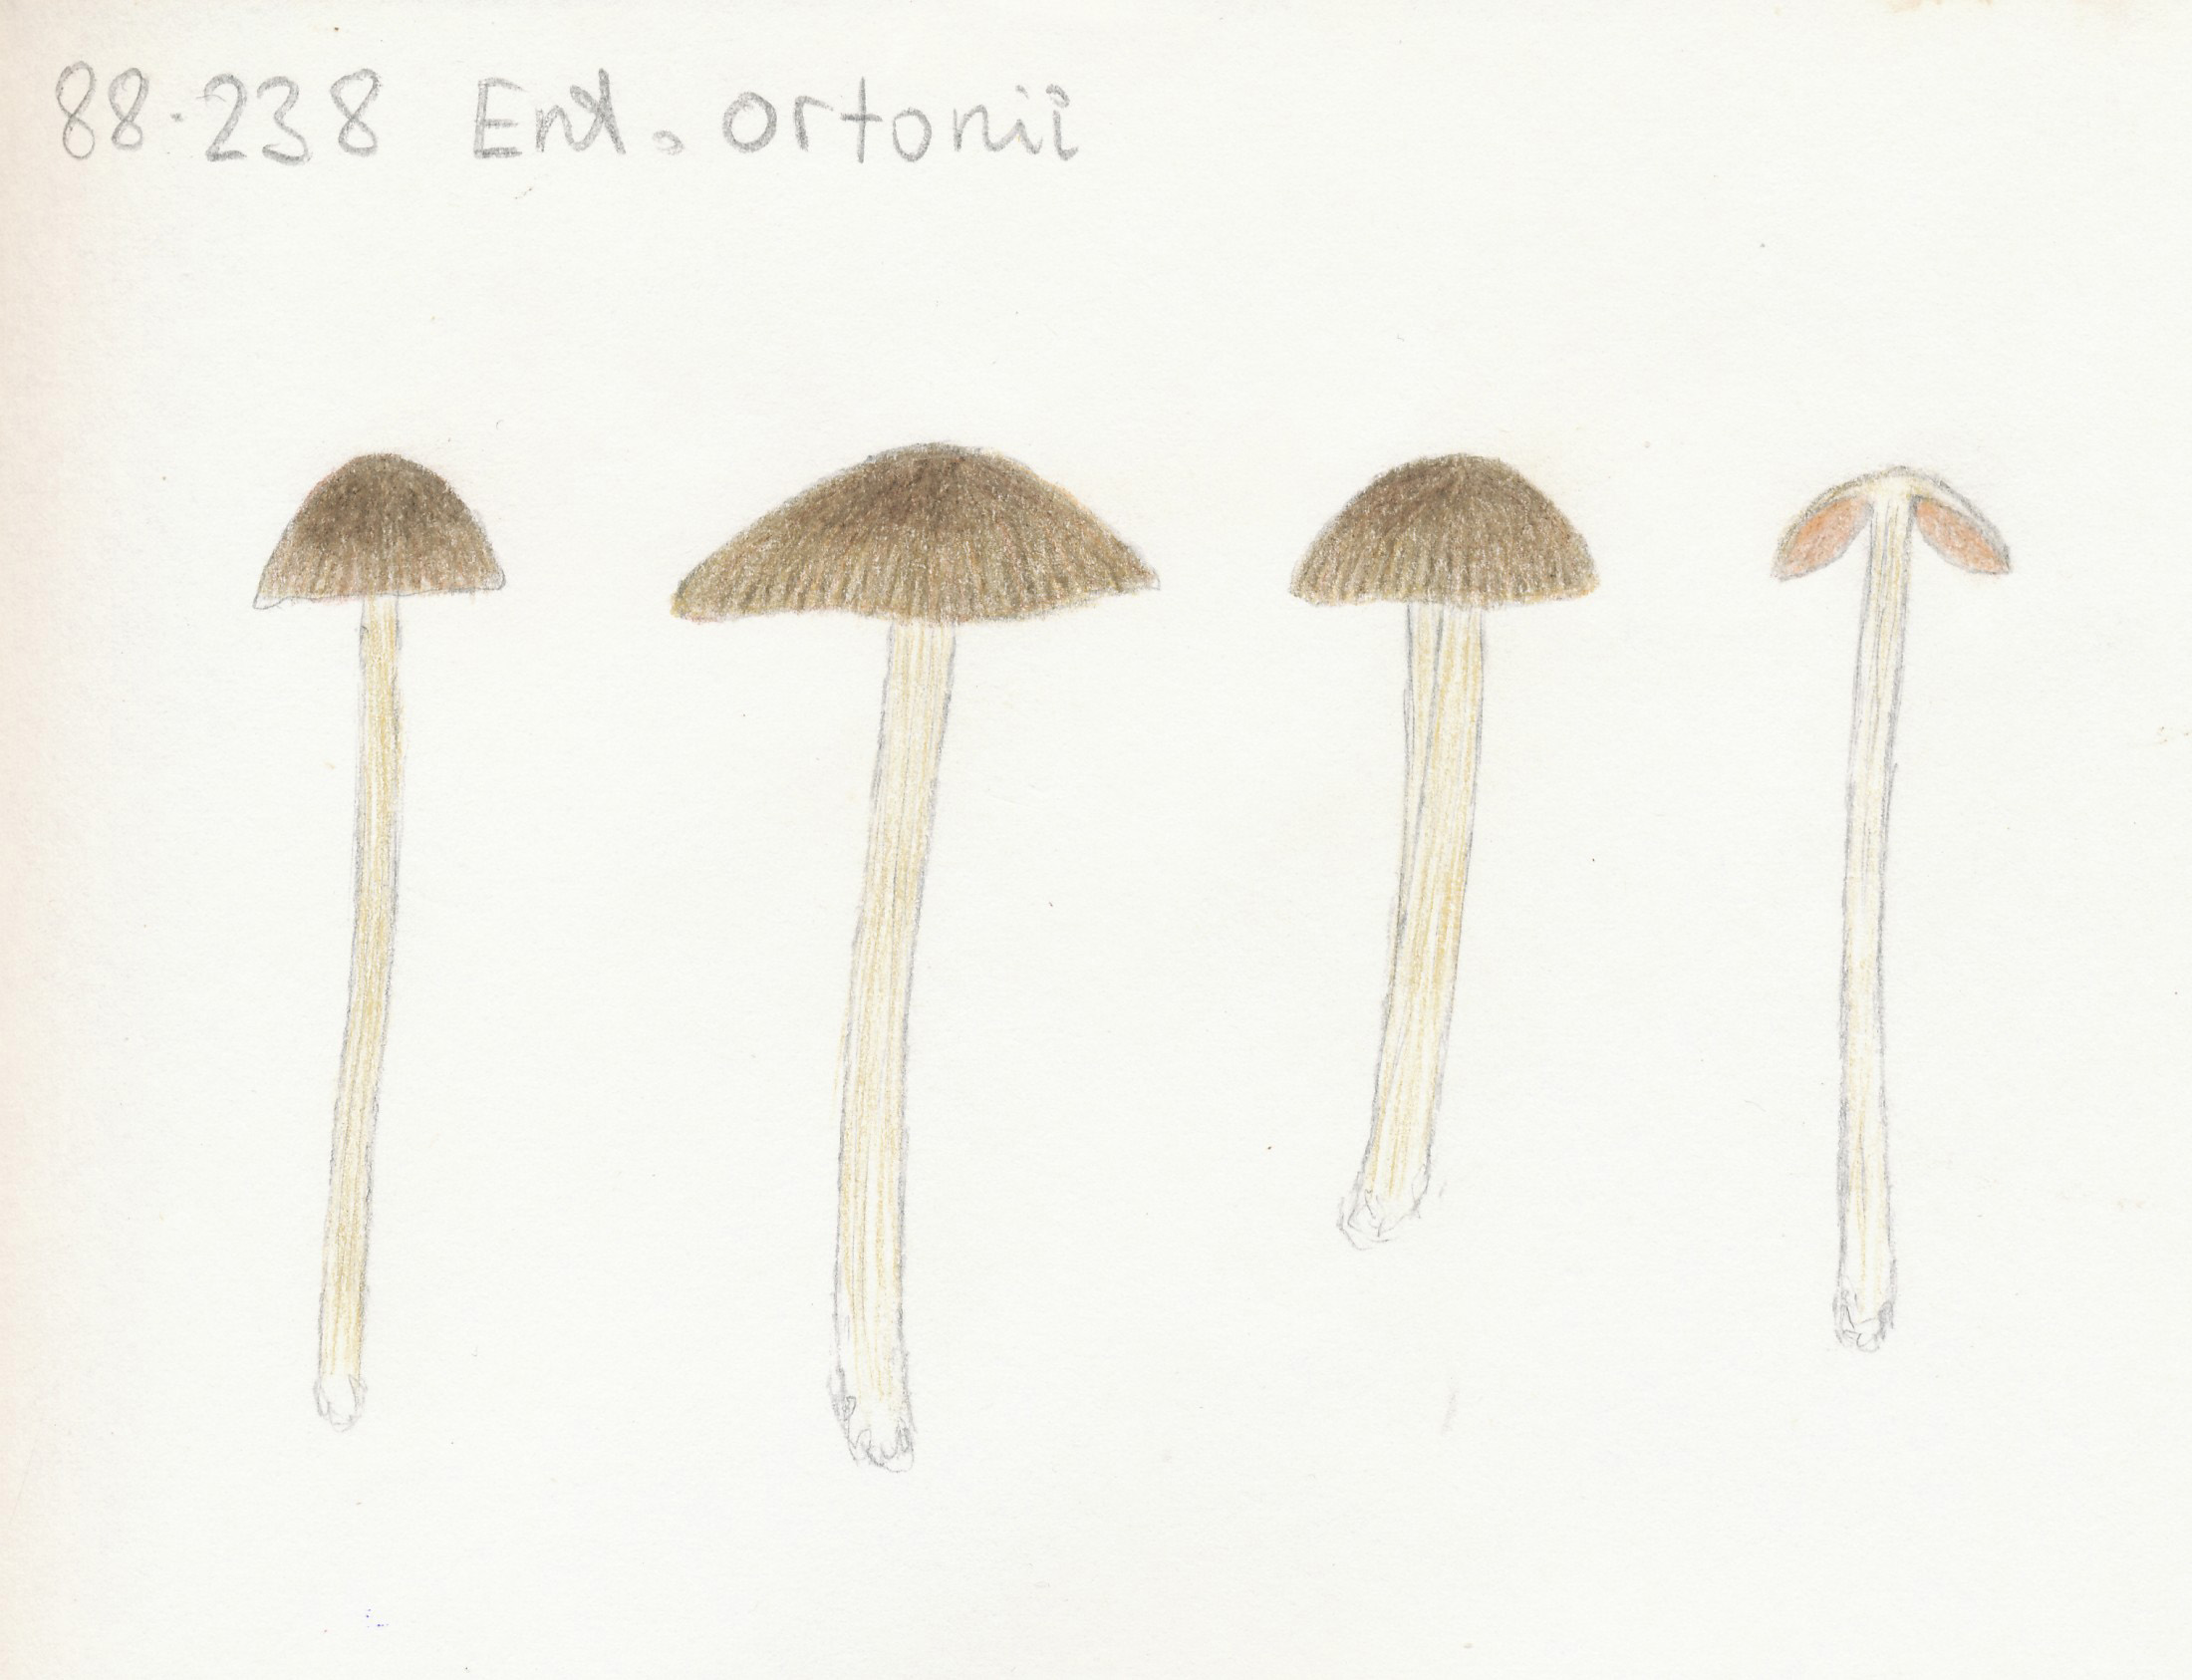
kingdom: Fungi
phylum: Basidiomycota
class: Agaricomycetes
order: Agaricales
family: Entolomataceae
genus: Entoloma
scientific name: Entoloma ortonii
